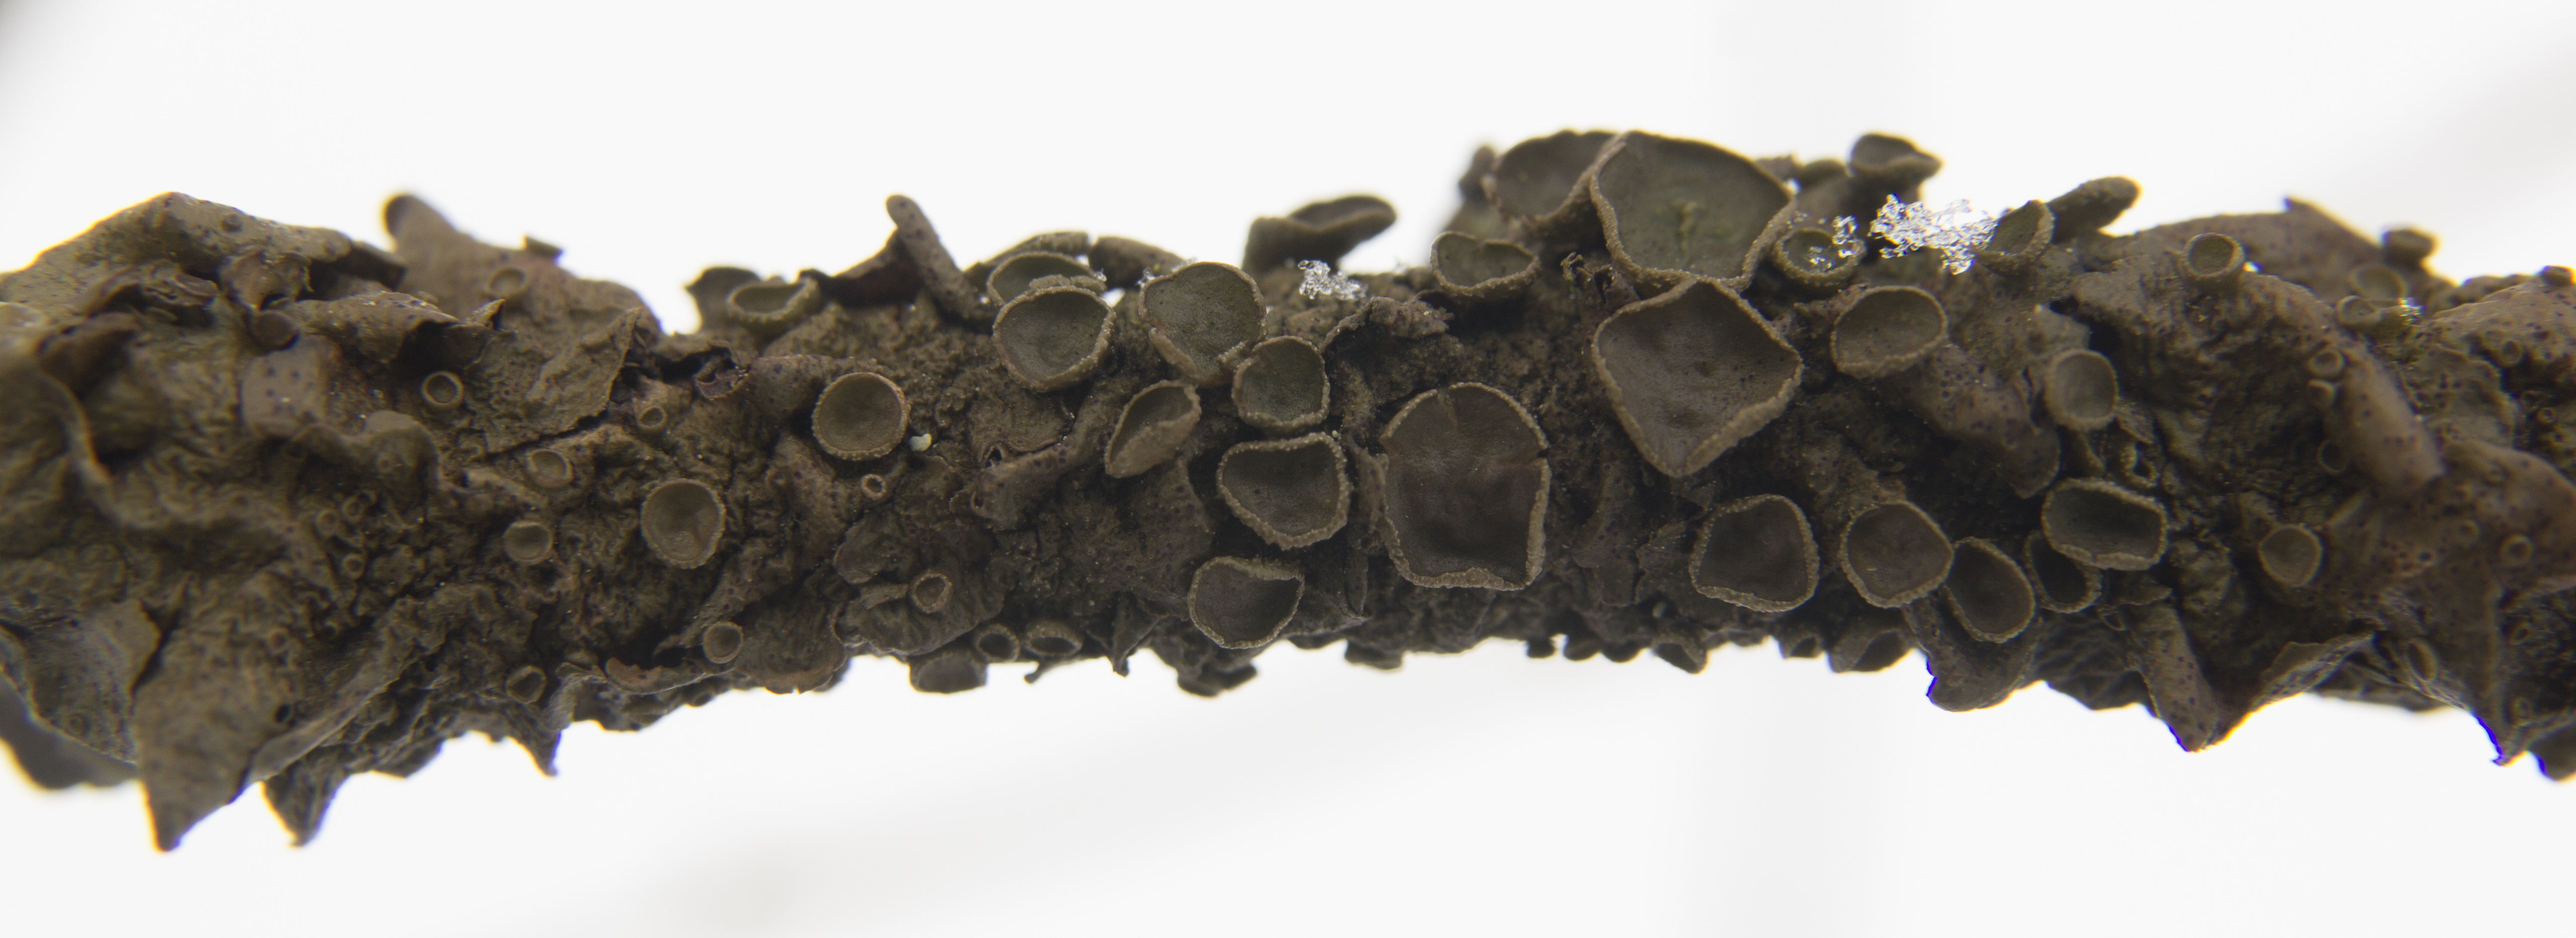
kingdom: Fungi
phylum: Ascomycota
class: Lecanoromycetes
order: Lecanorales
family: Parmeliaceae
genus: Cetraria
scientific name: Cetraria sepincola
